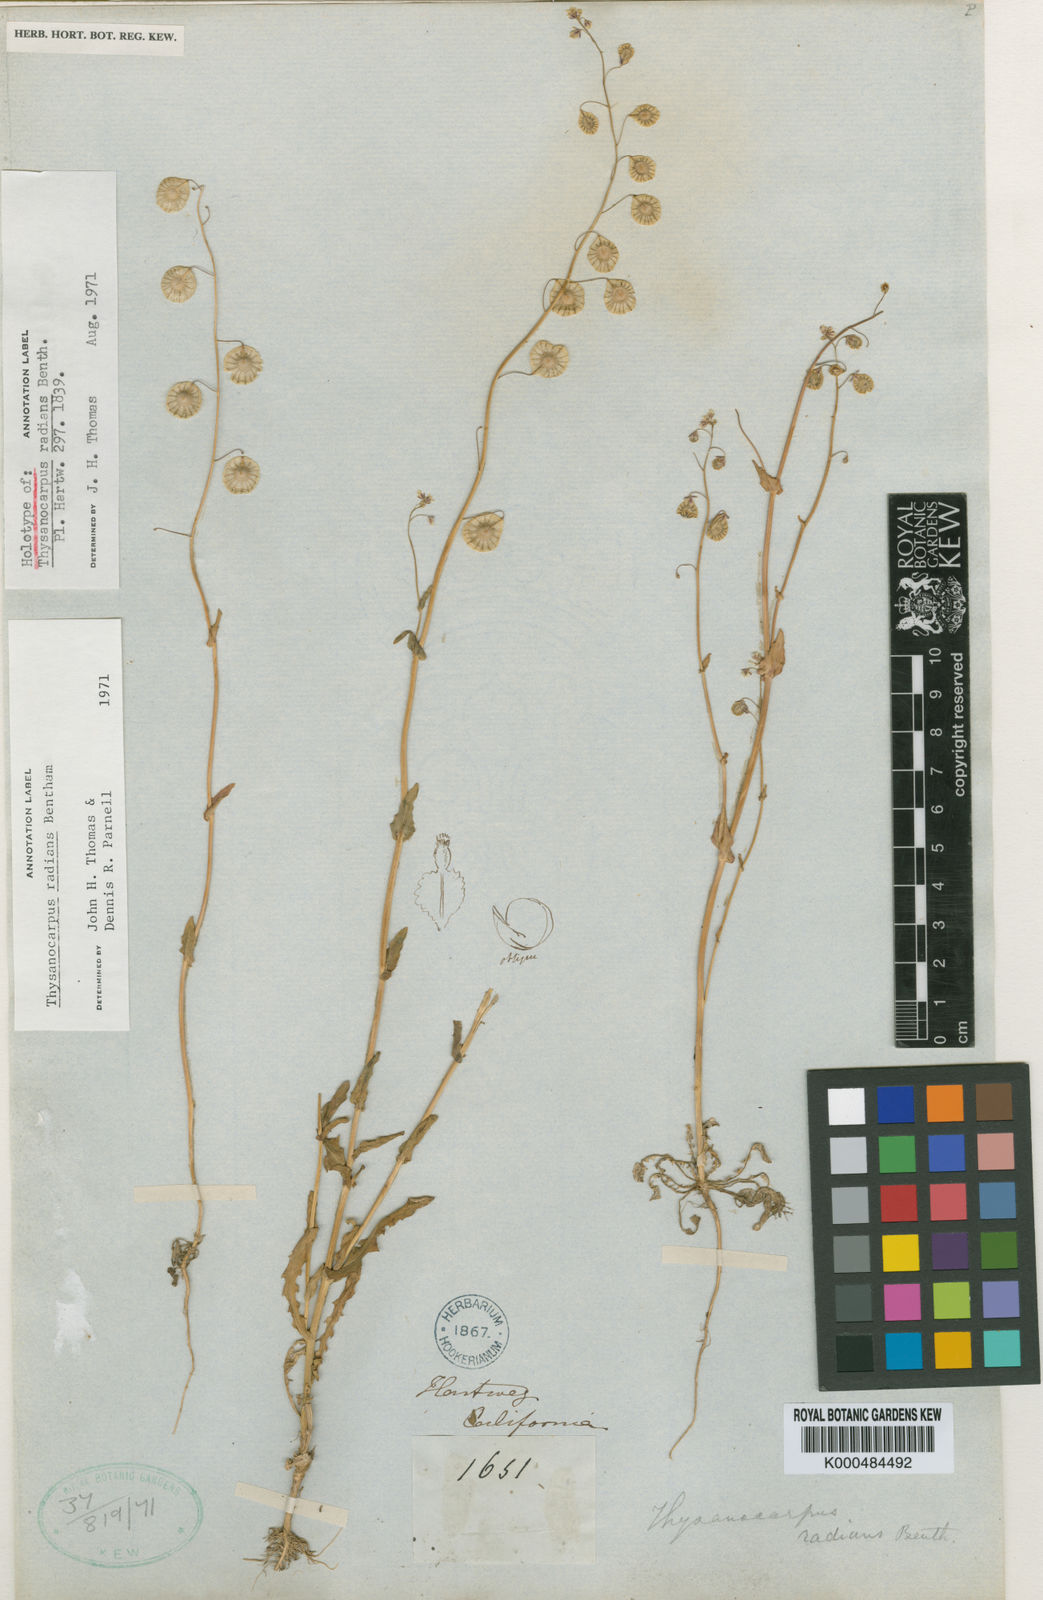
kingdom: Plantae
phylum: Tracheophyta
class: Magnoliopsida
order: Brassicales
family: Brassicaceae
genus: Thysanocarpus
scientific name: Thysanocarpus radians
